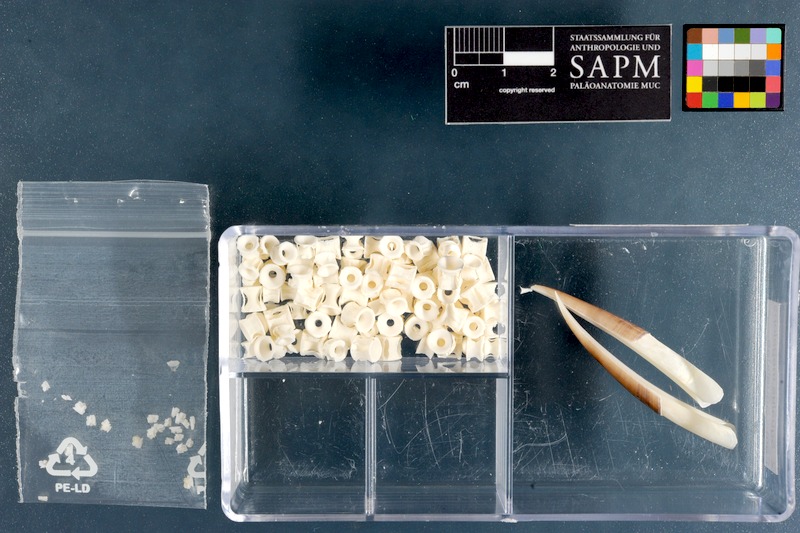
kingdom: Animalia
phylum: Chordata
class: Elasmobranchii
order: Squaliformes
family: Squalidae
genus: Squalus
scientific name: Squalus megalops
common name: Shortnose spurdog
